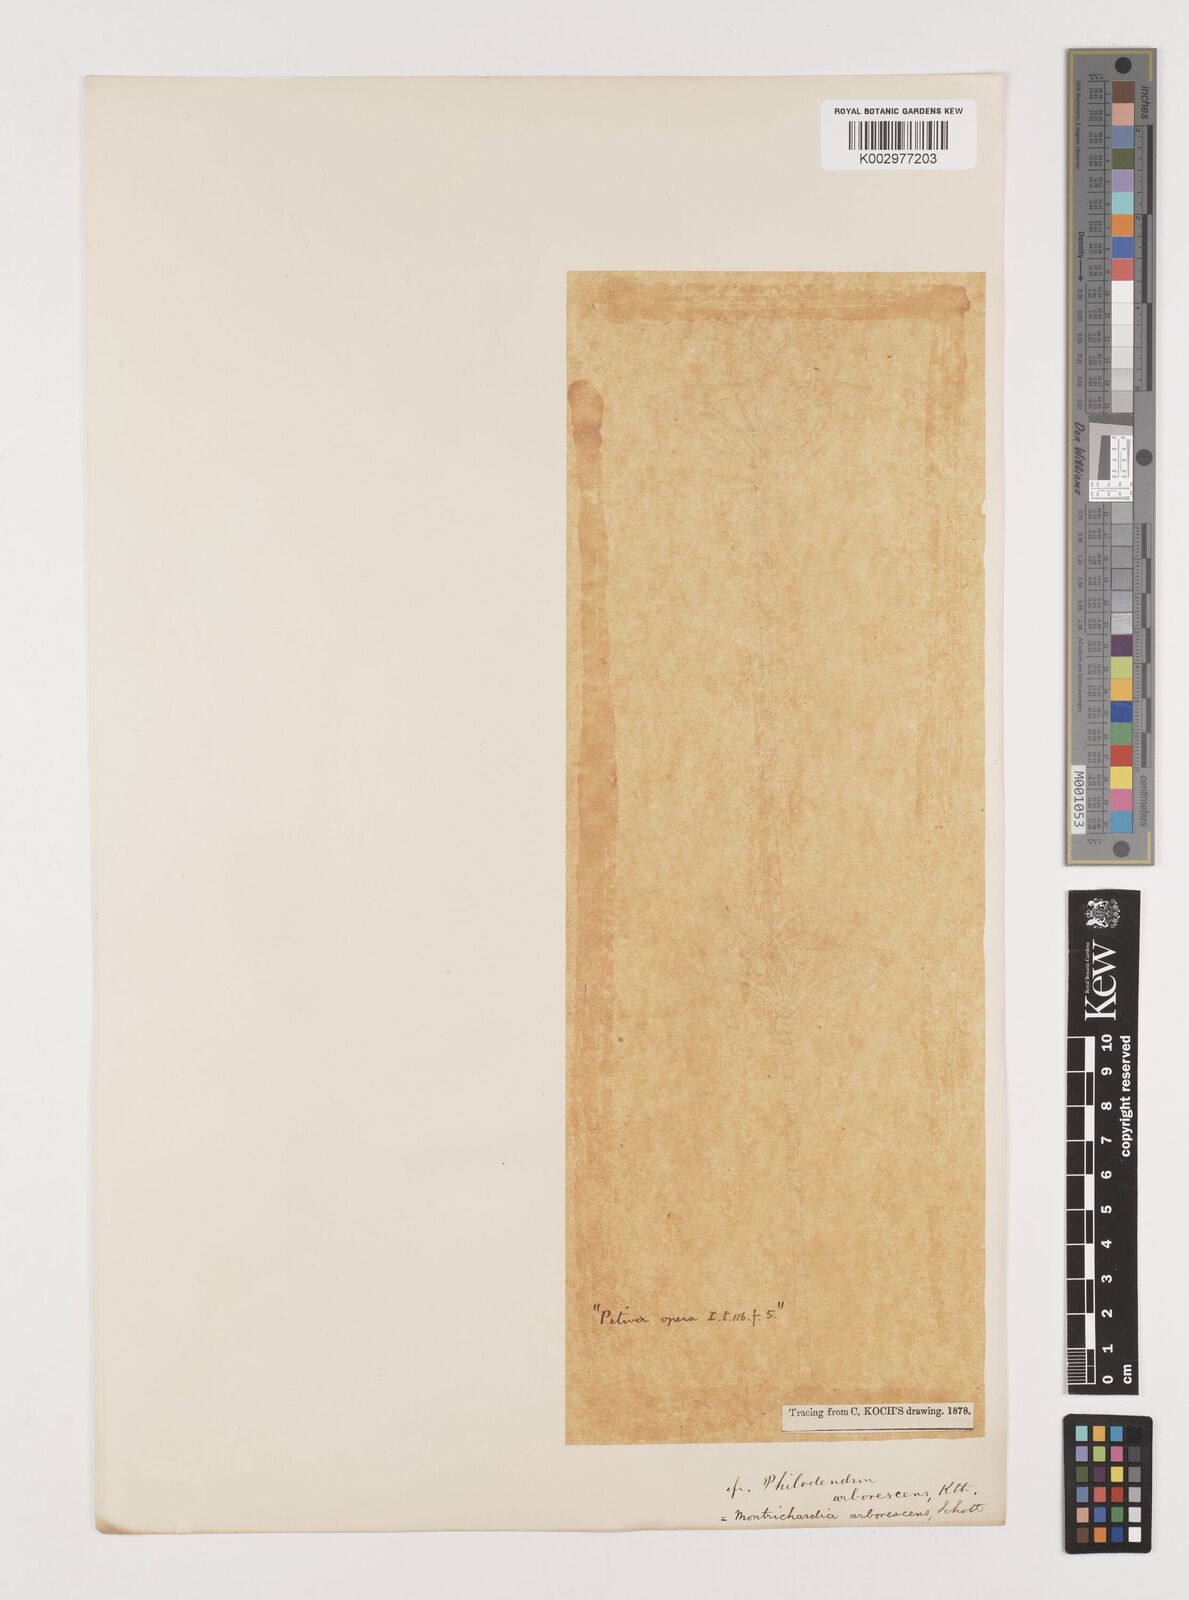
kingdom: Plantae
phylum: Tracheophyta
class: Liliopsida
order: Alismatales
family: Araceae
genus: Montrichardia
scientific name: Montrichardia arborescens
